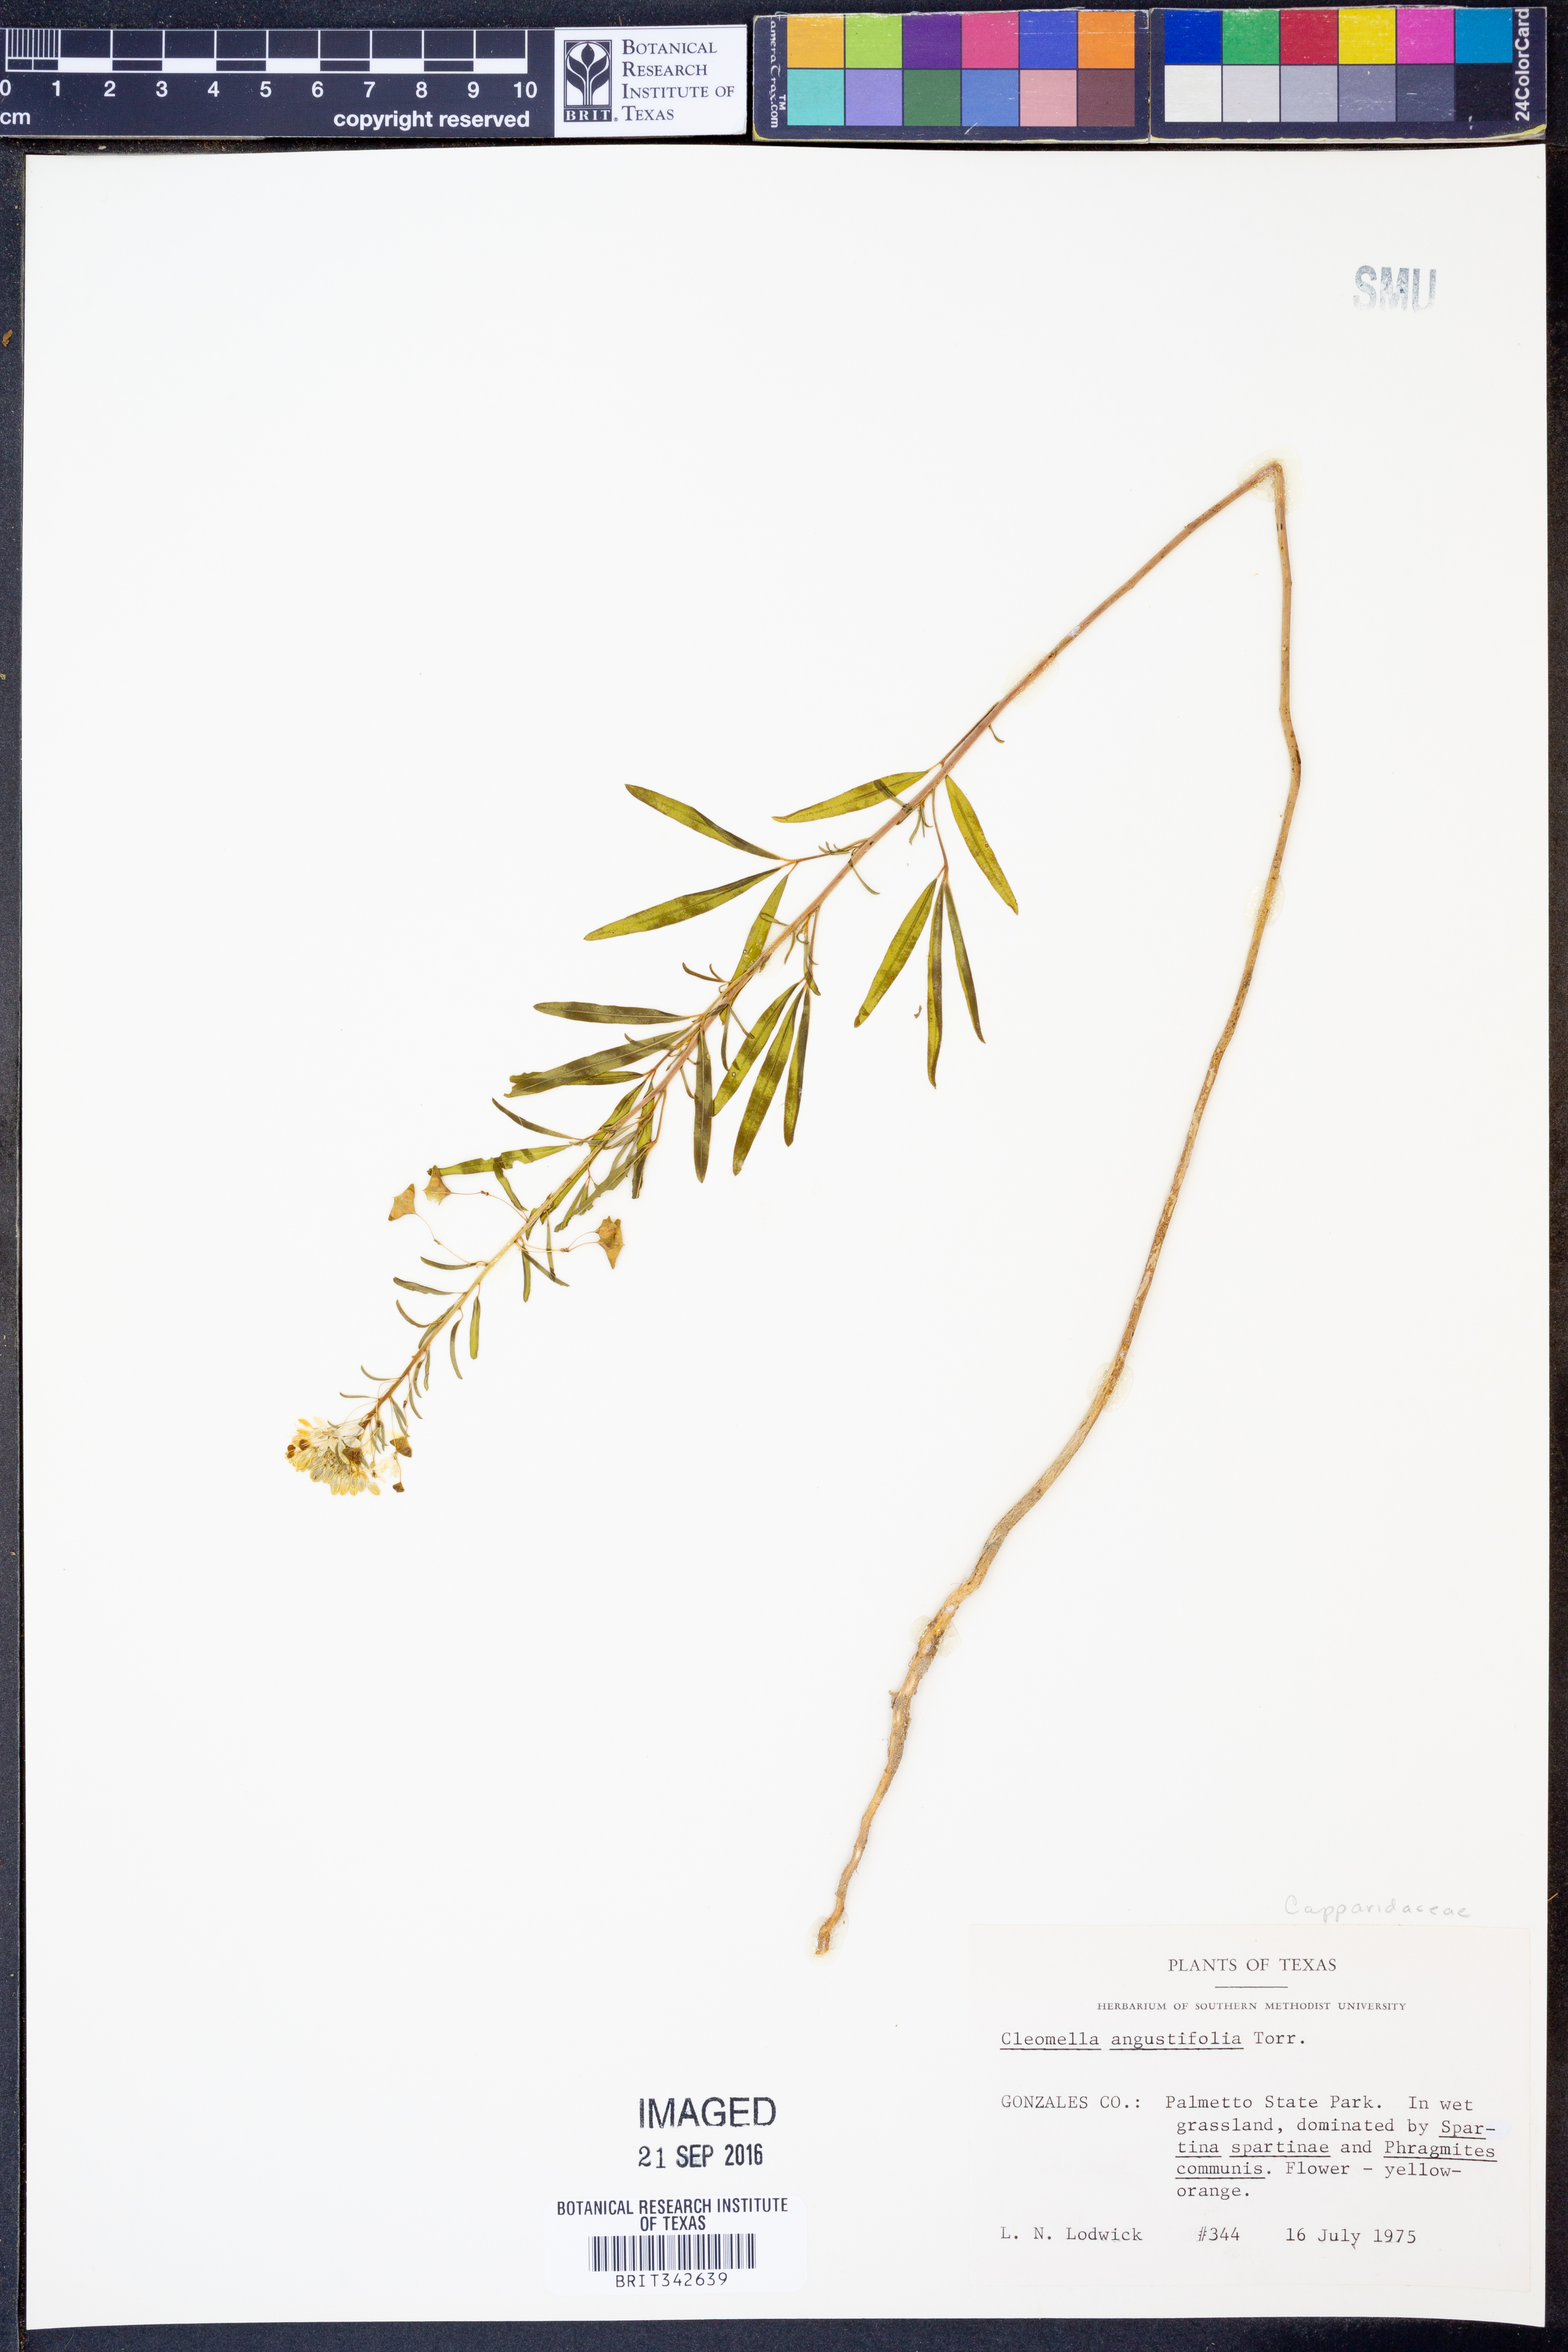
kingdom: Plantae
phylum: Tracheophyta
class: Magnoliopsida
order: Brassicales
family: Cleomaceae
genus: Cleomella
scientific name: Cleomella angustifolia
